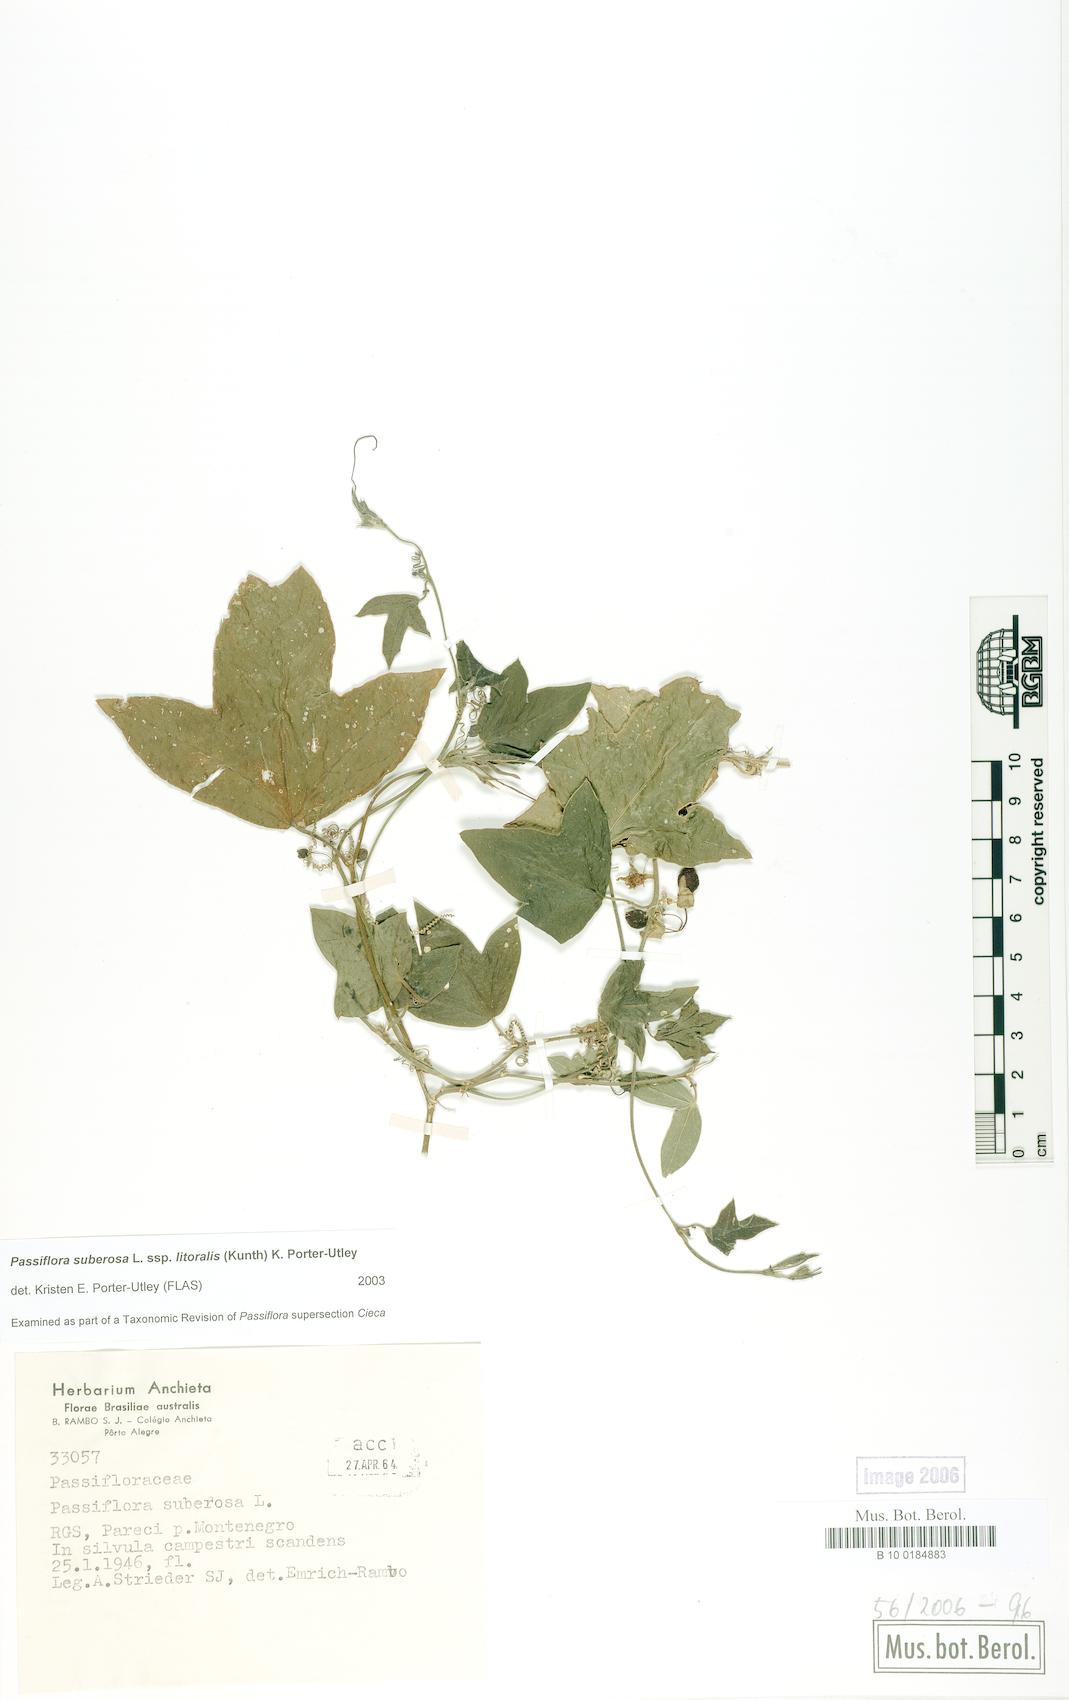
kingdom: Plantae
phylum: Tracheophyta
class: Magnoliopsida
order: Malpighiales
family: Passifloraceae
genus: Passiflora
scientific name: Passiflora suberosa
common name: Wild passionfruit
